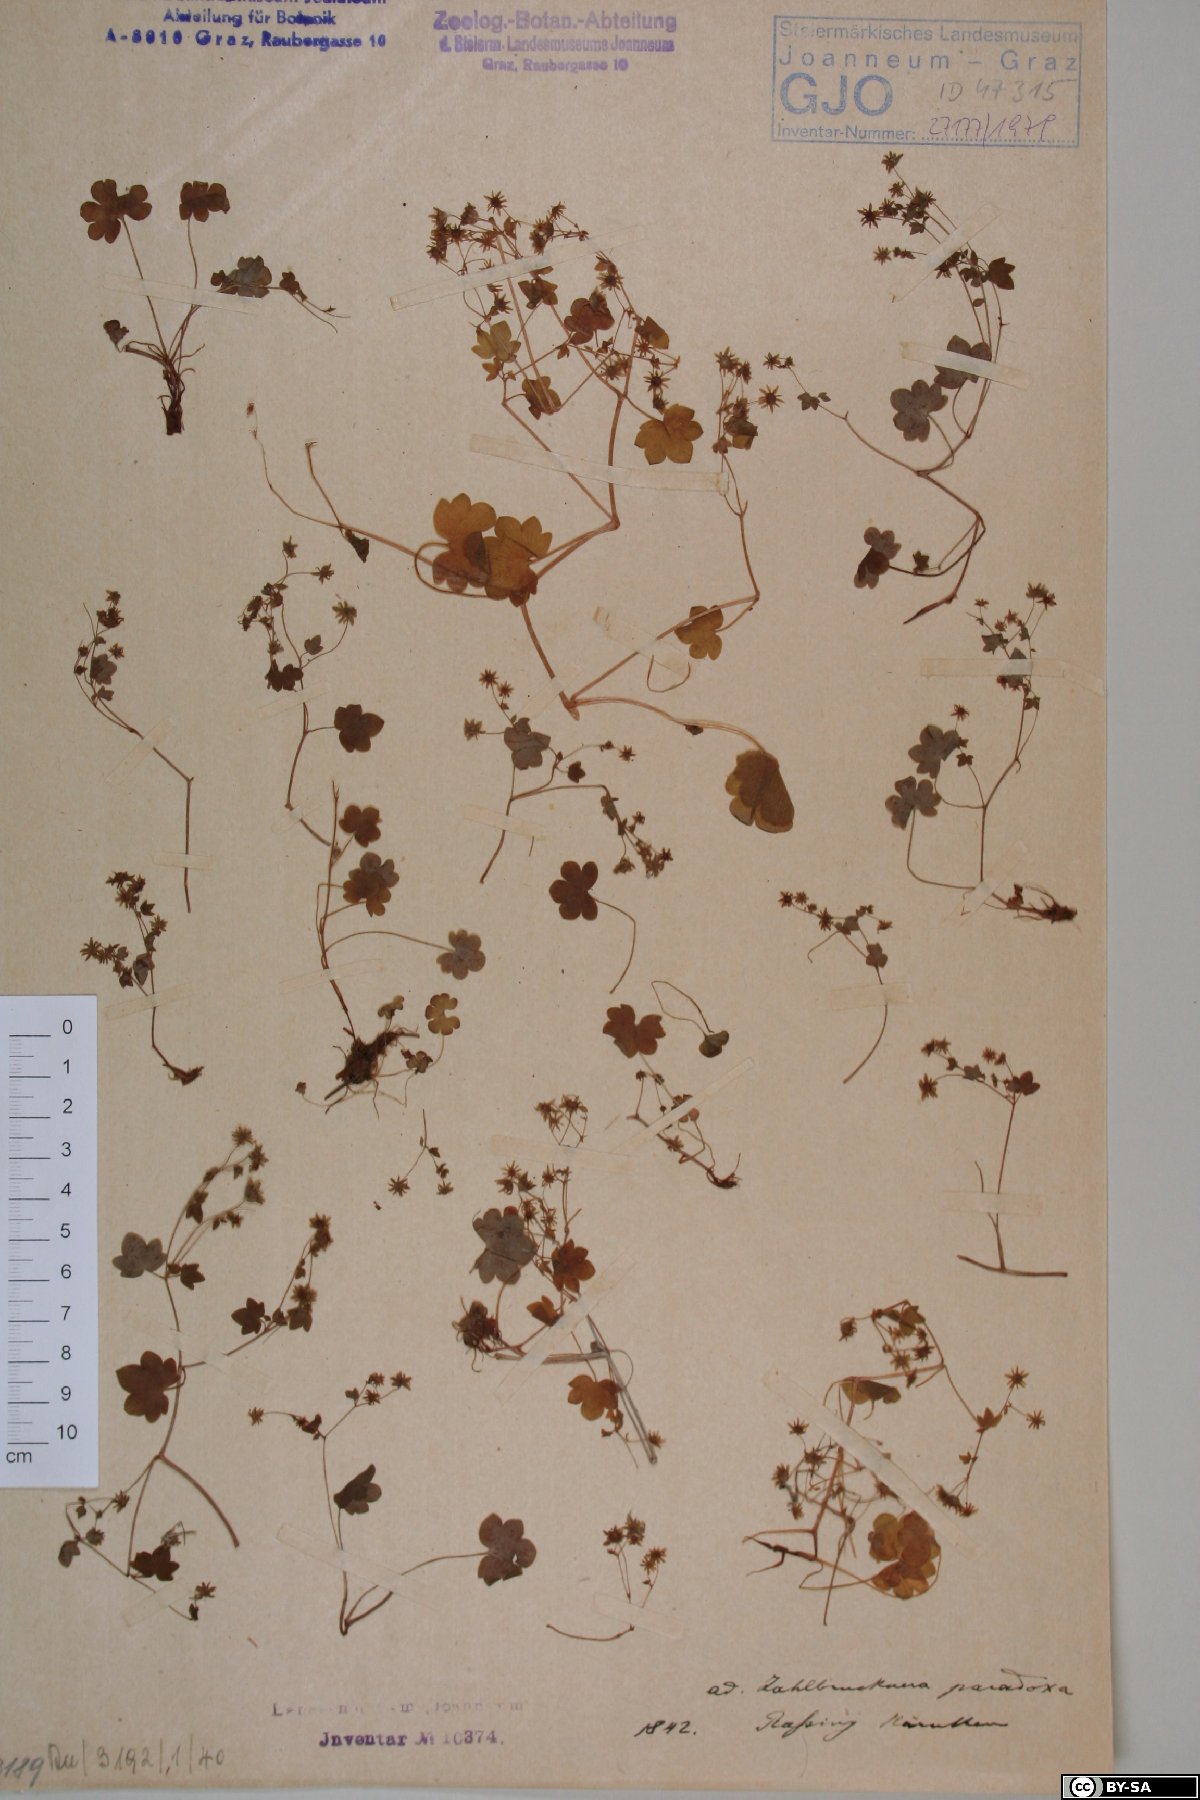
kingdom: Plantae
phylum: Tracheophyta
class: Magnoliopsida
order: Saxifragales
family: Saxifragaceae
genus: Saxifraga
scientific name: Saxifraga paradoxa
